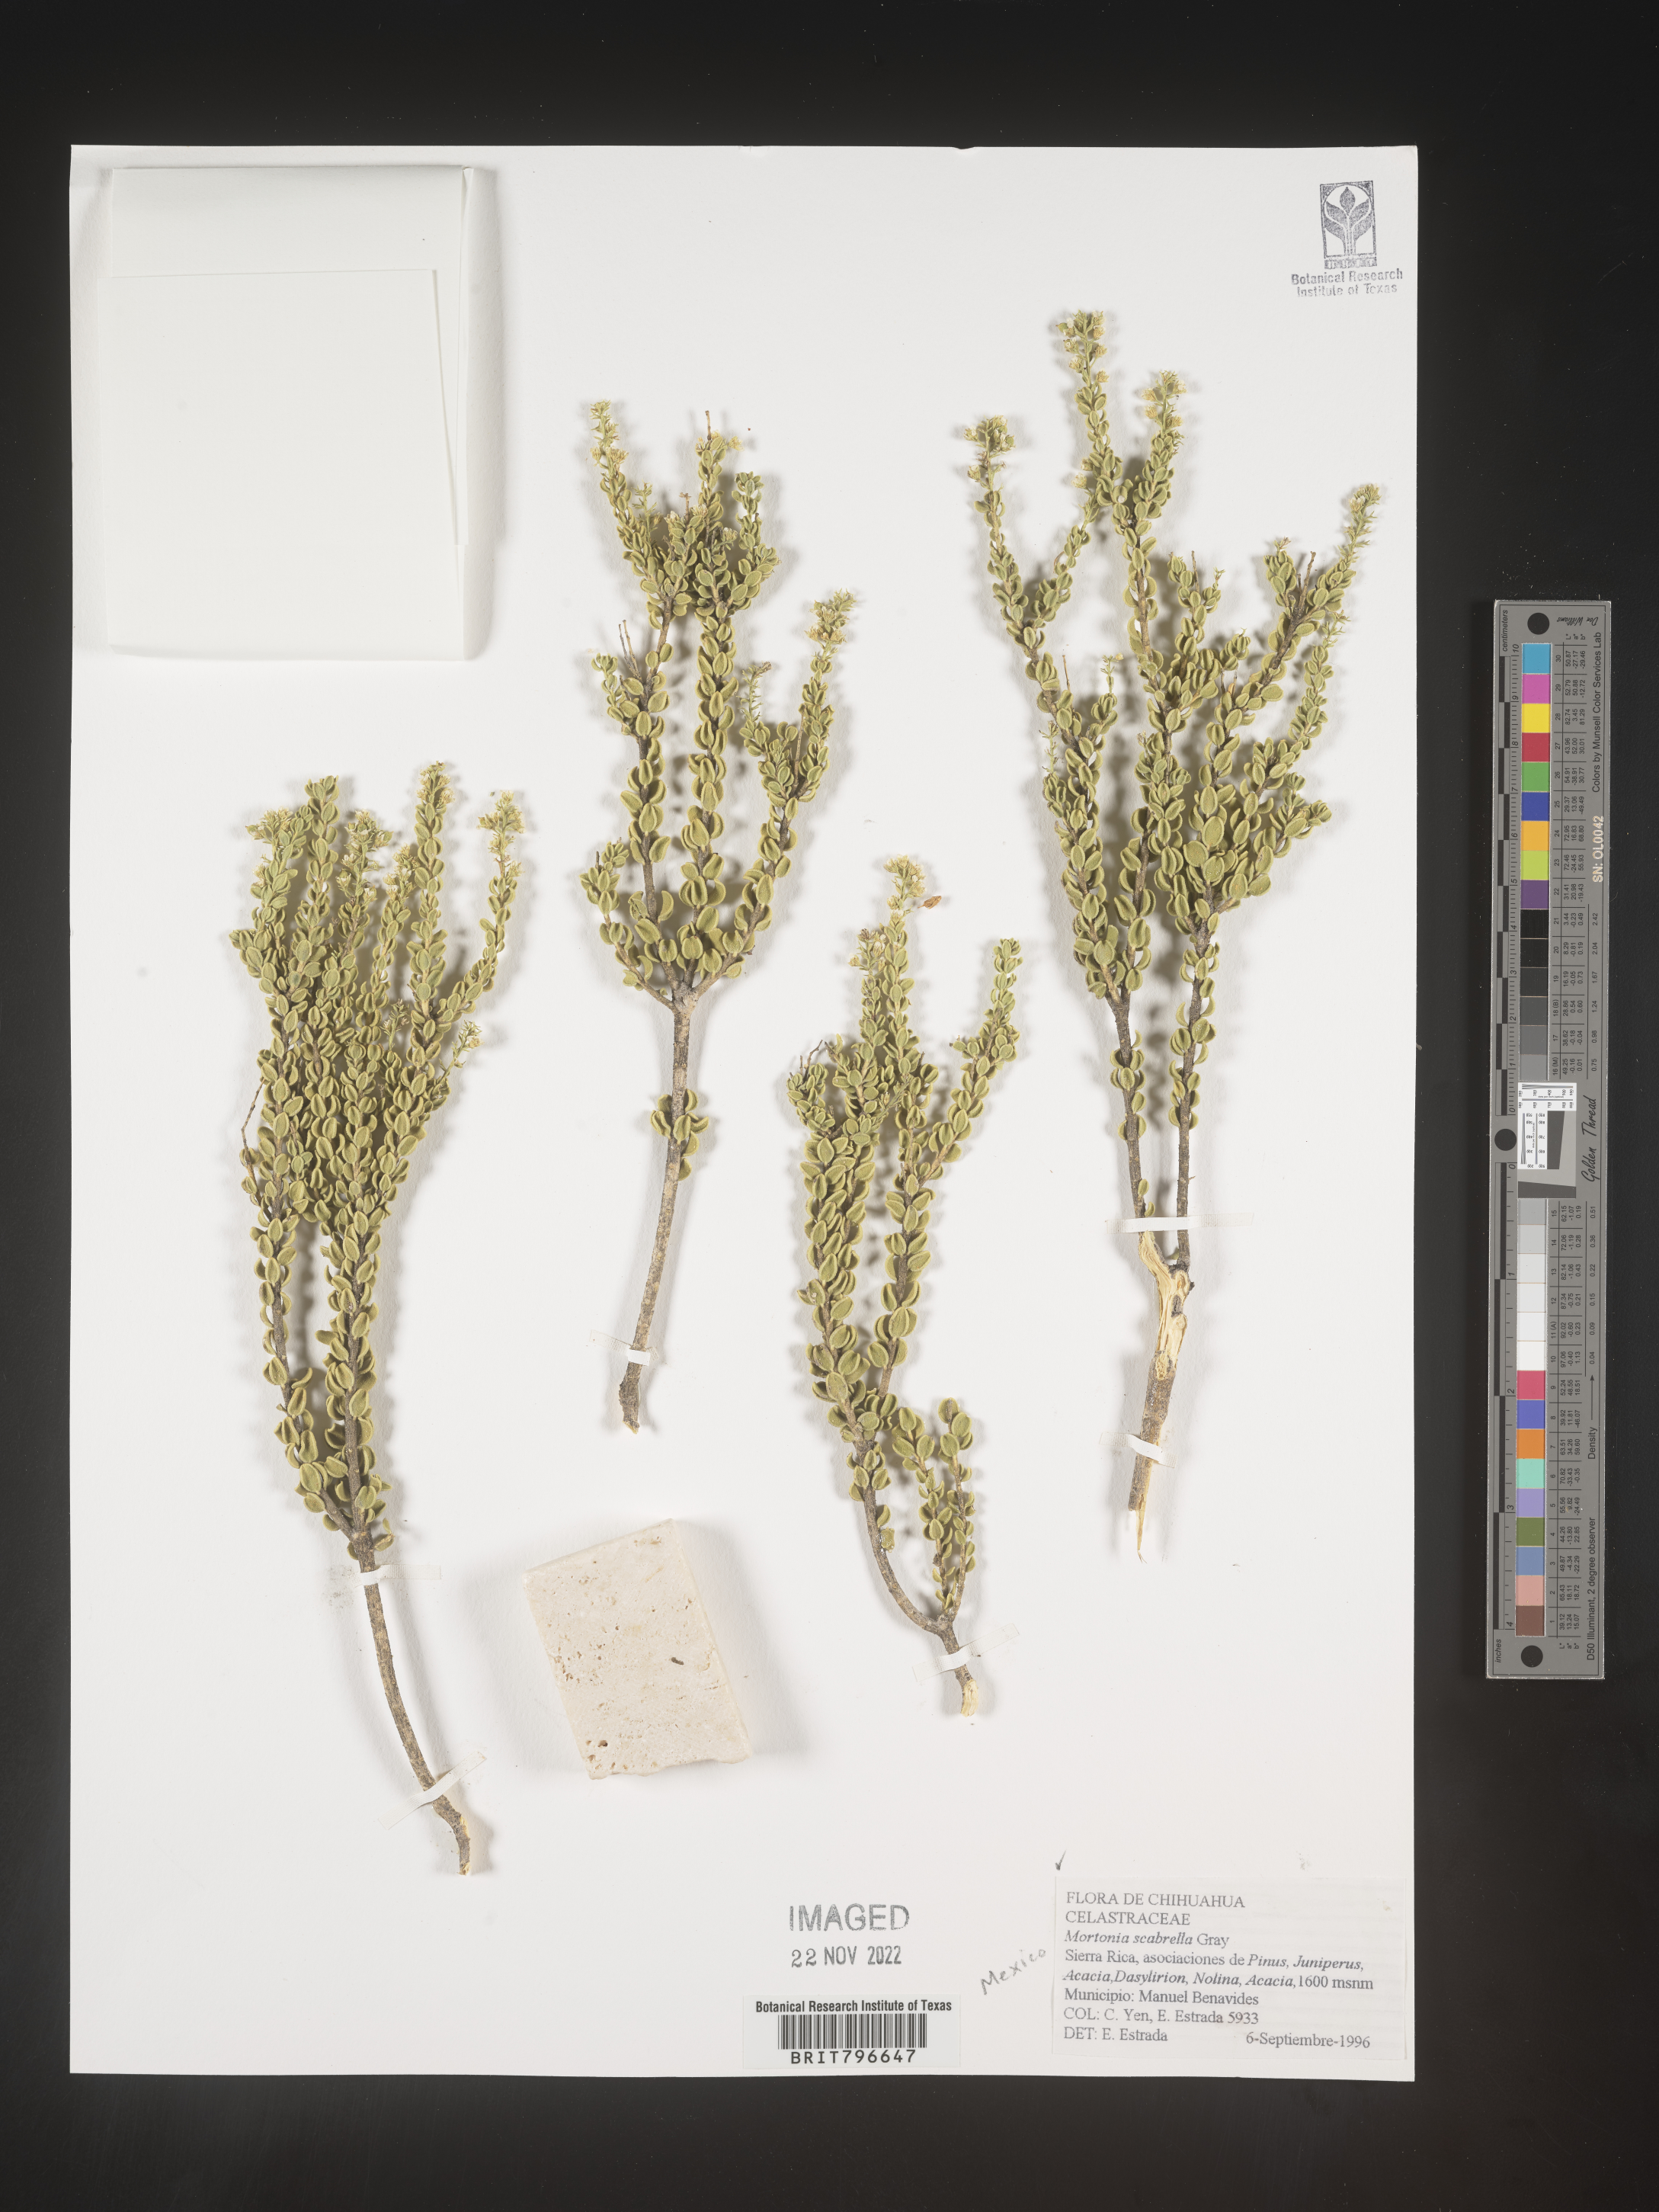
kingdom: Plantae
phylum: Tracheophyta
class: Magnoliopsida
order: Celastrales
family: Celastraceae
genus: Mortonia
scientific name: Mortonia
